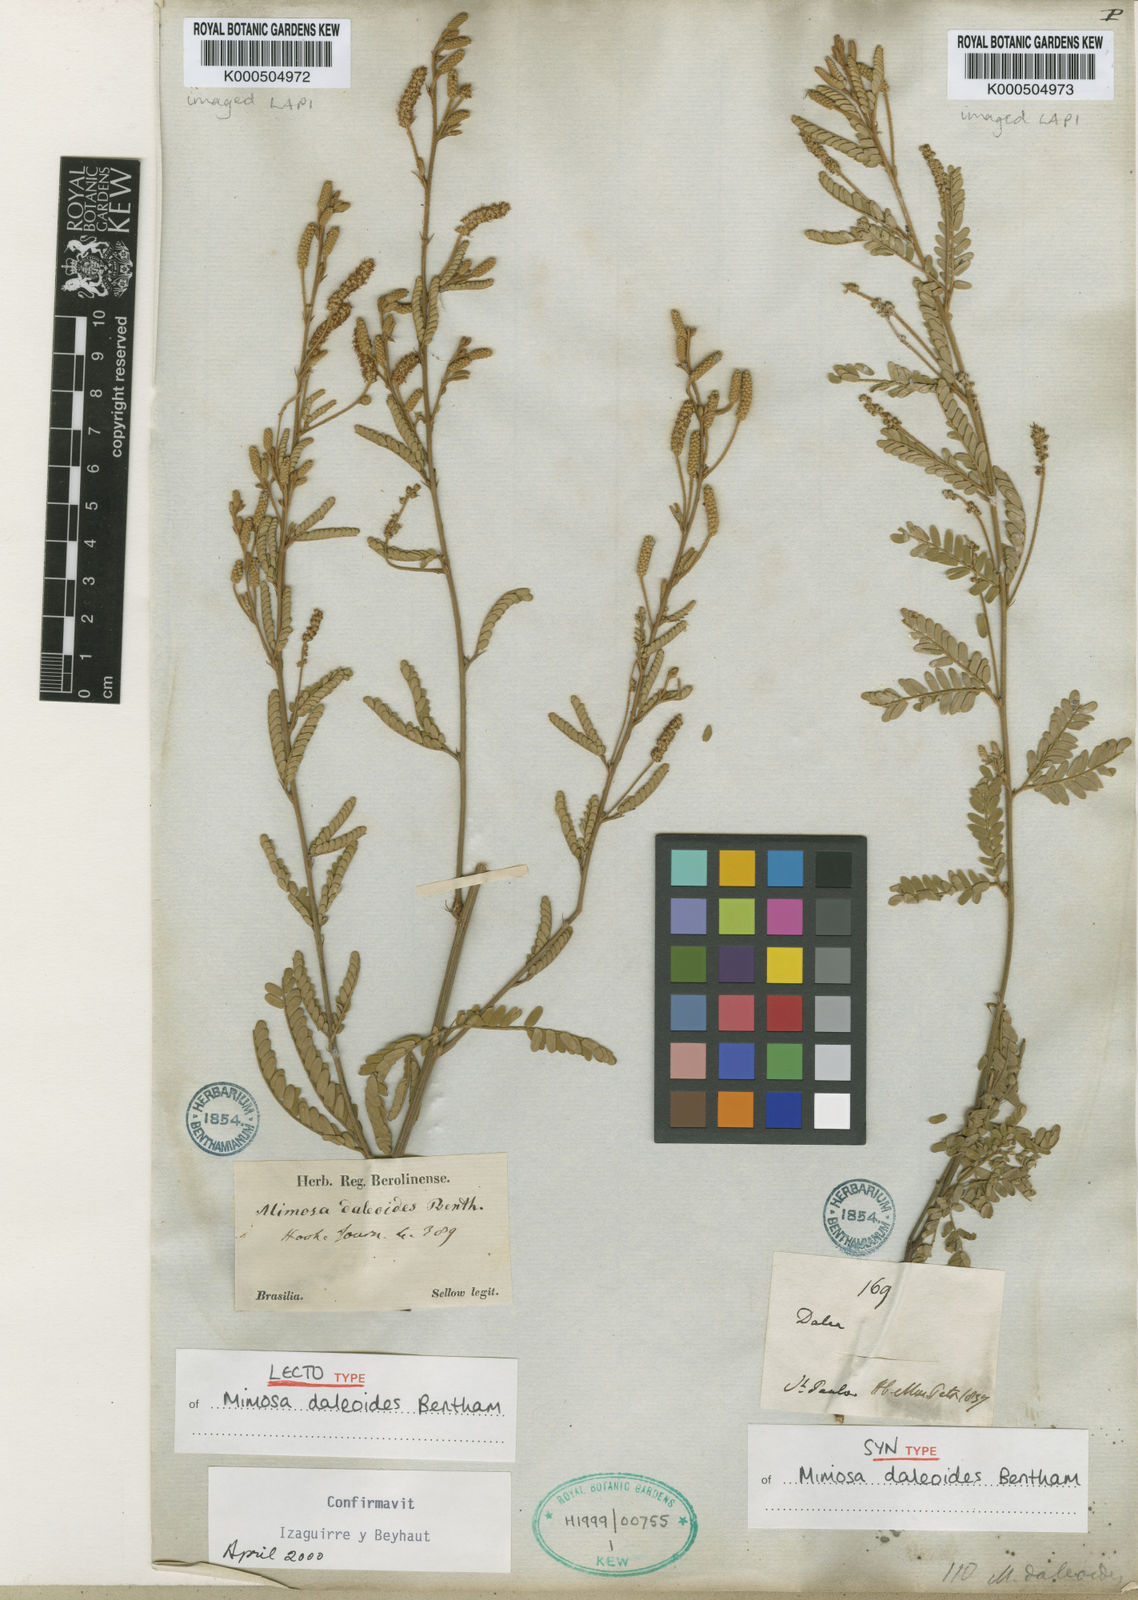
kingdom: Plantae
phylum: Tracheophyta
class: Magnoliopsida
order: Fabales
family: Fabaceae
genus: Mimosa
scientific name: Mimosa daleoides
